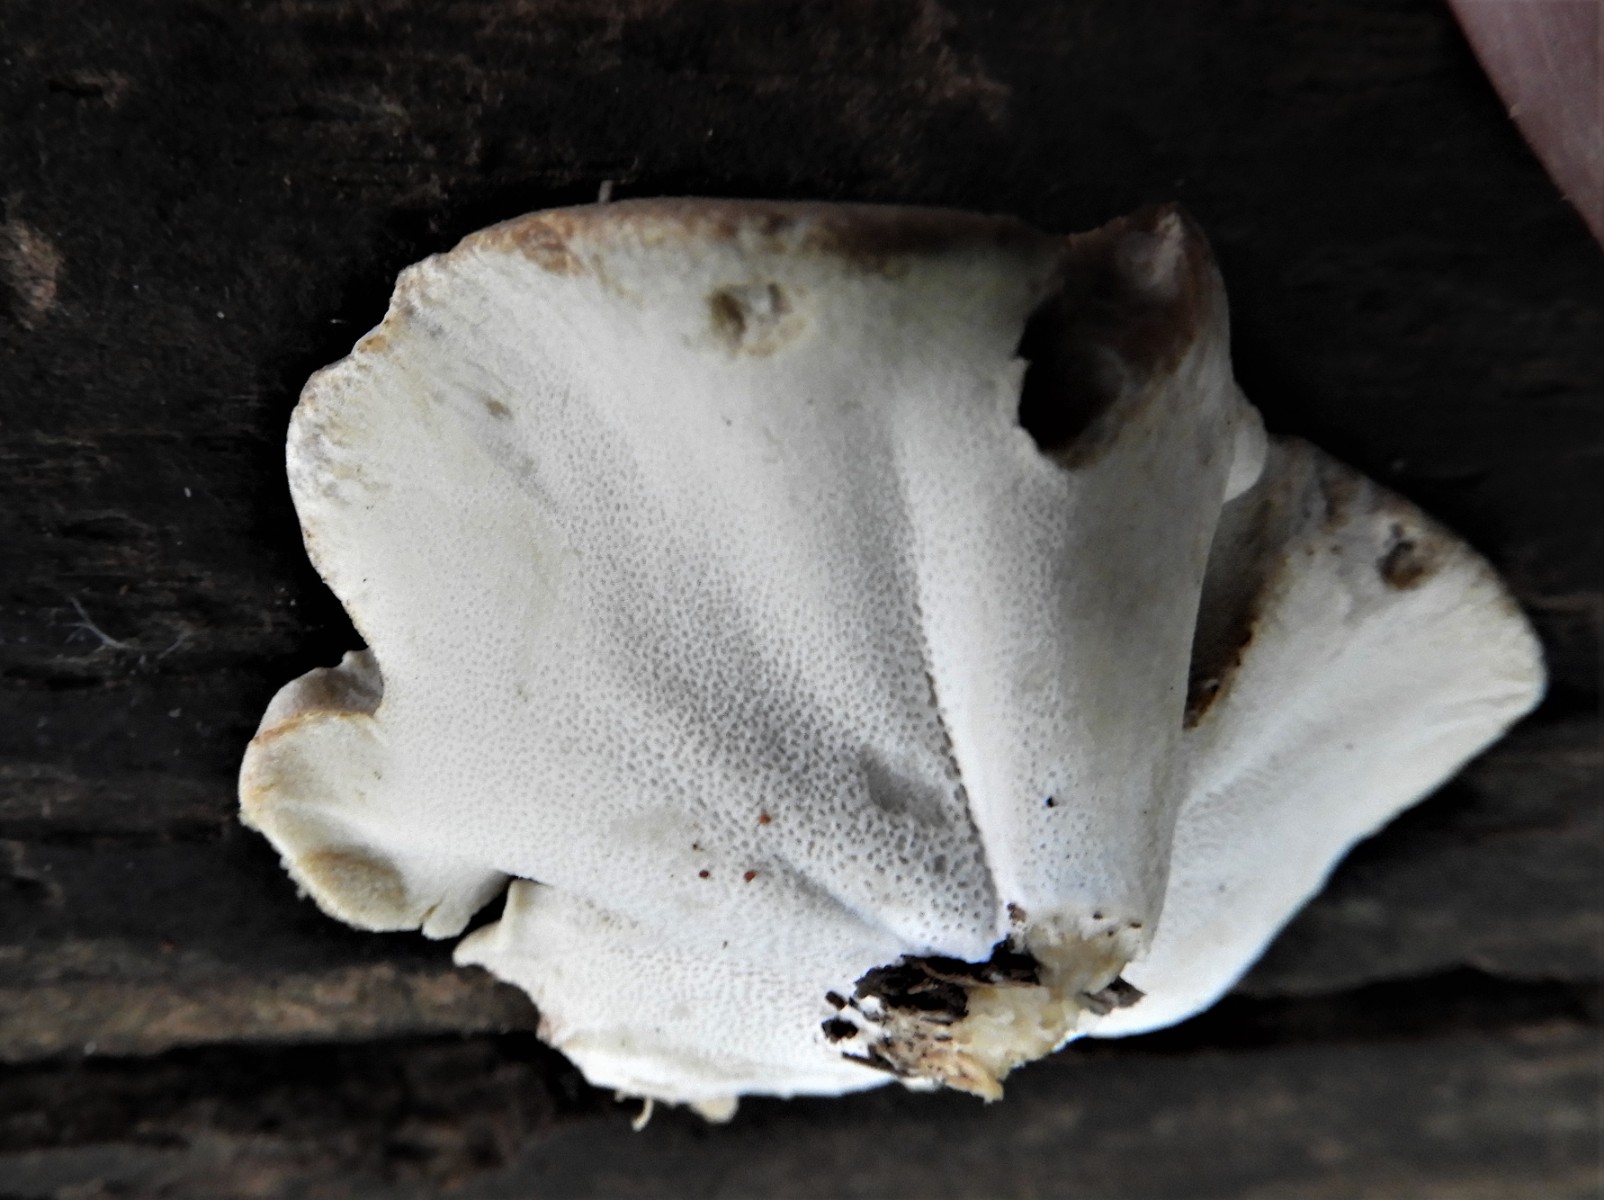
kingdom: Fungi
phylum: Basidiomycota
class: Agaricomycetes
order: Polyporales
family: Polyporaceae
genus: Cerioporus
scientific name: Cerioporus varius
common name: foranderlig stilkporesvamp
